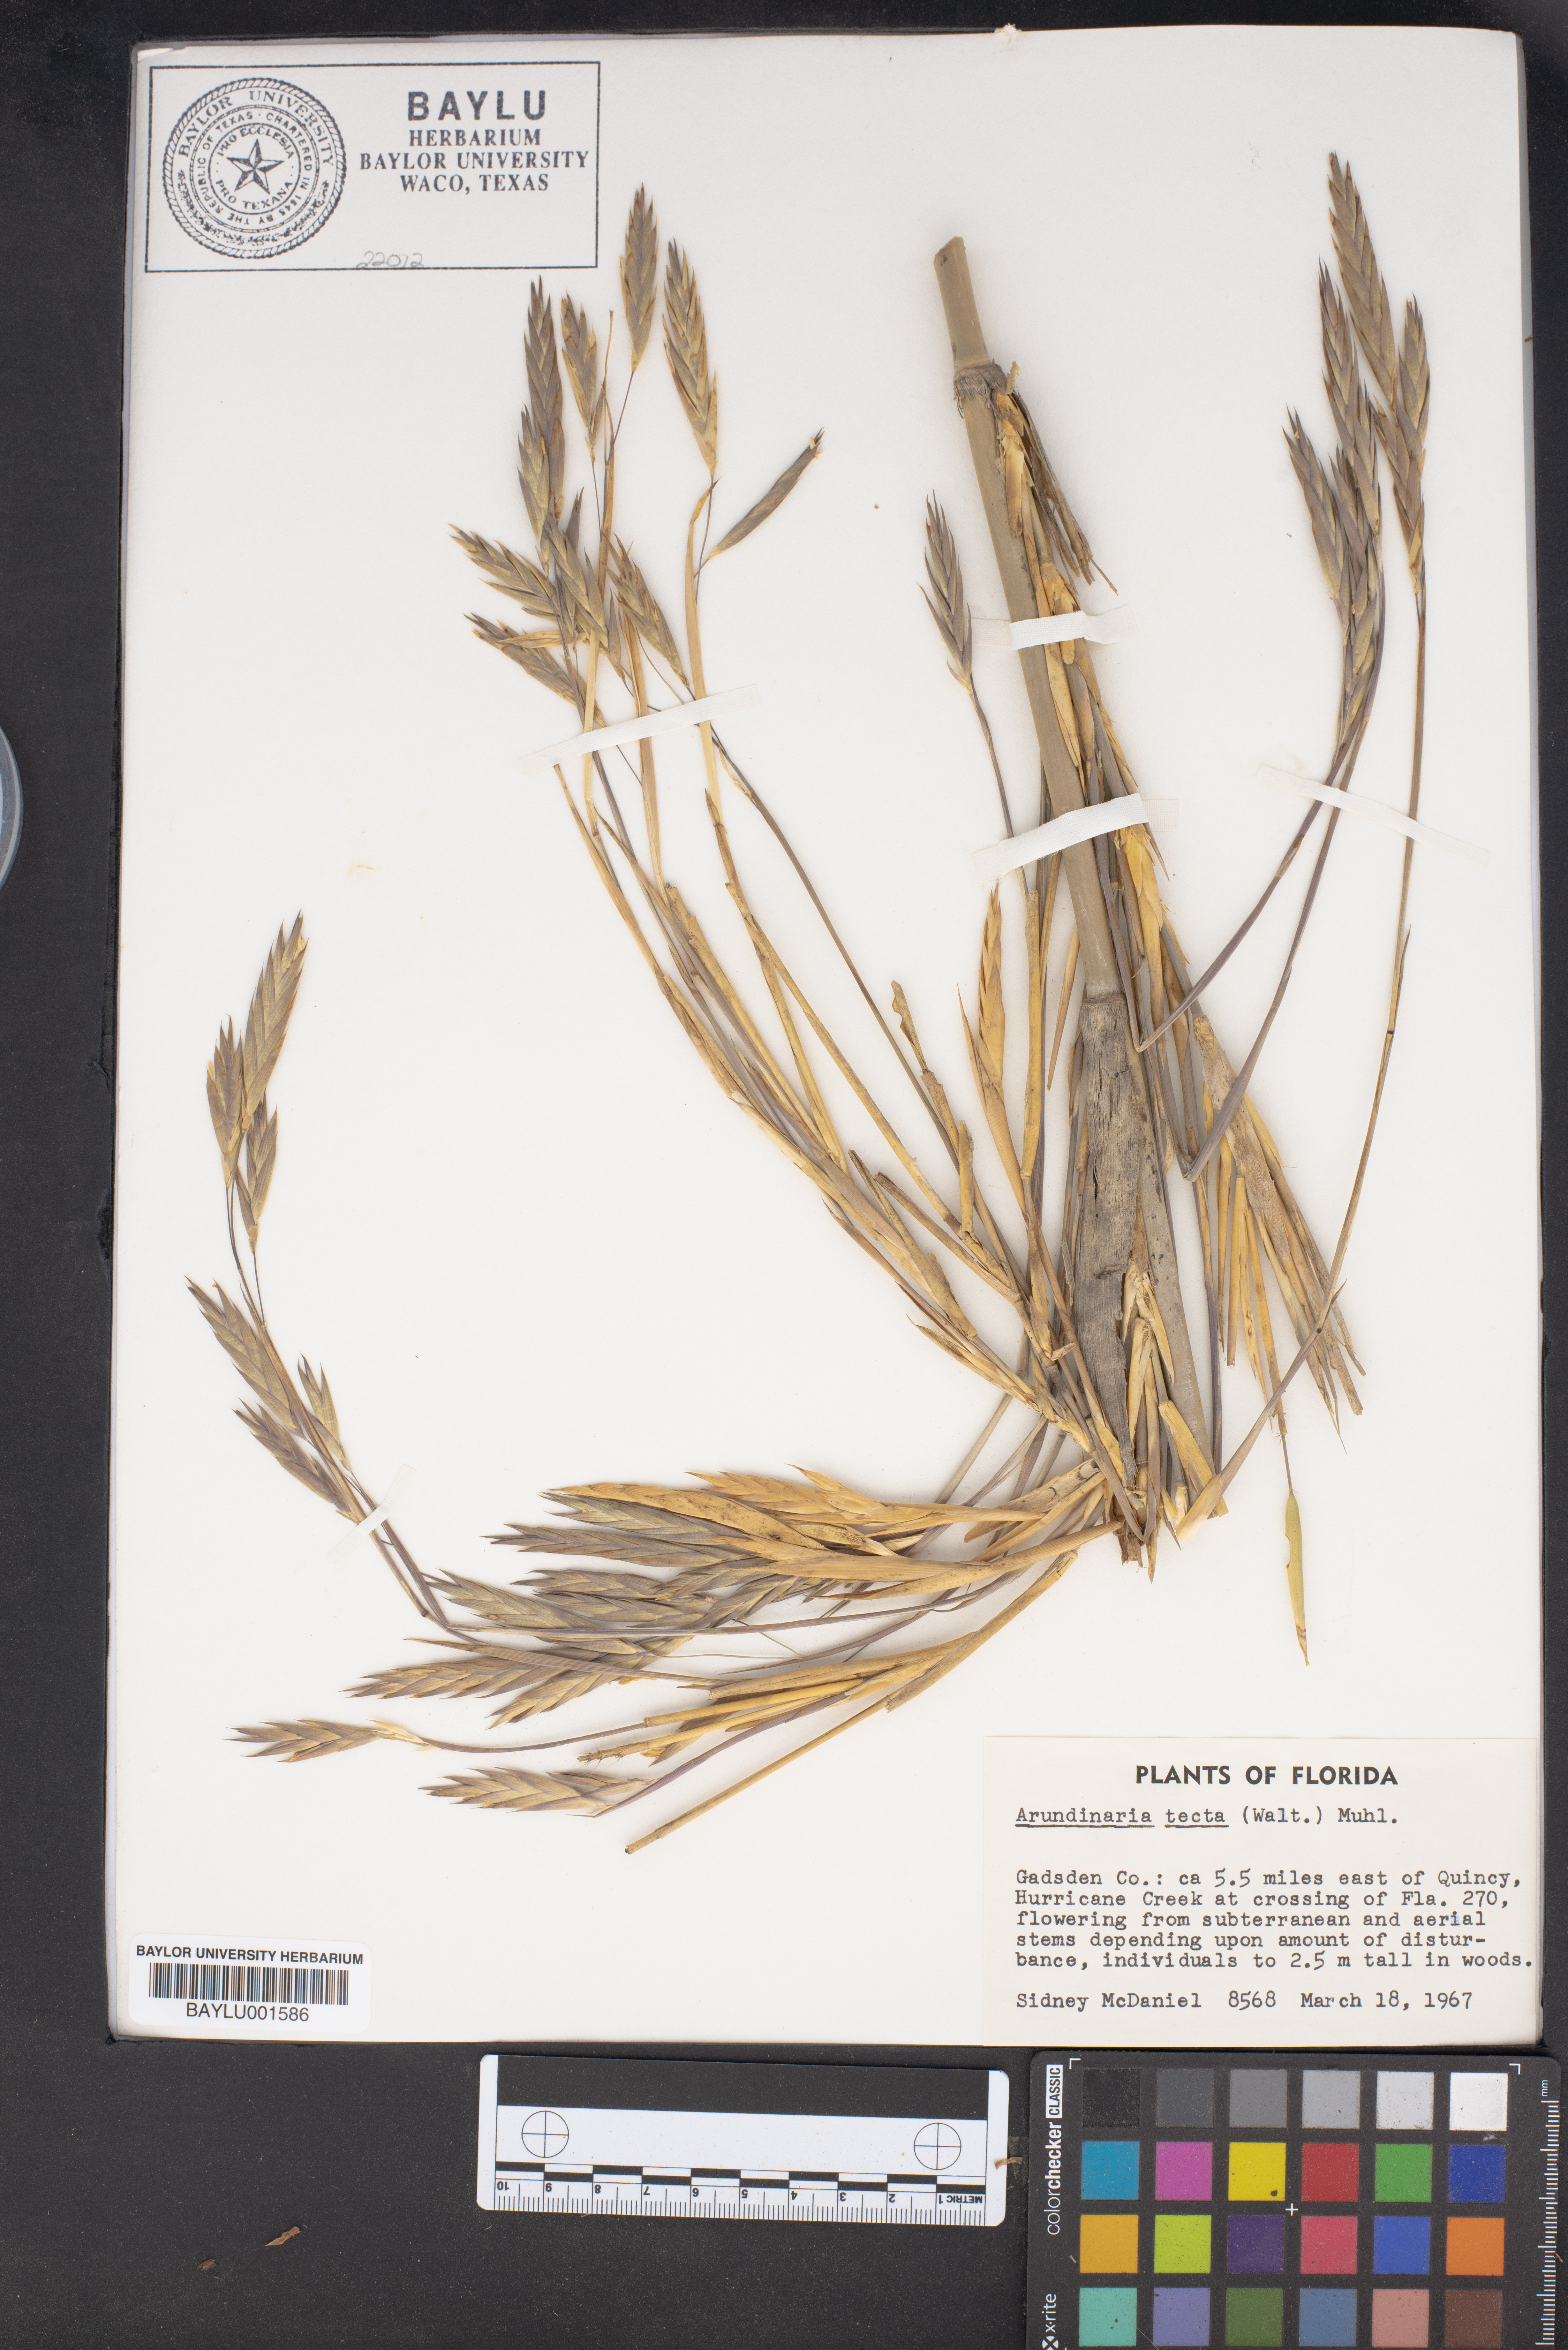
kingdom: Plantae
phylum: Tracheophyta
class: Liliopsida
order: Poales
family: Poaceae
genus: Arundinaria
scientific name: Arundinaria tecta
